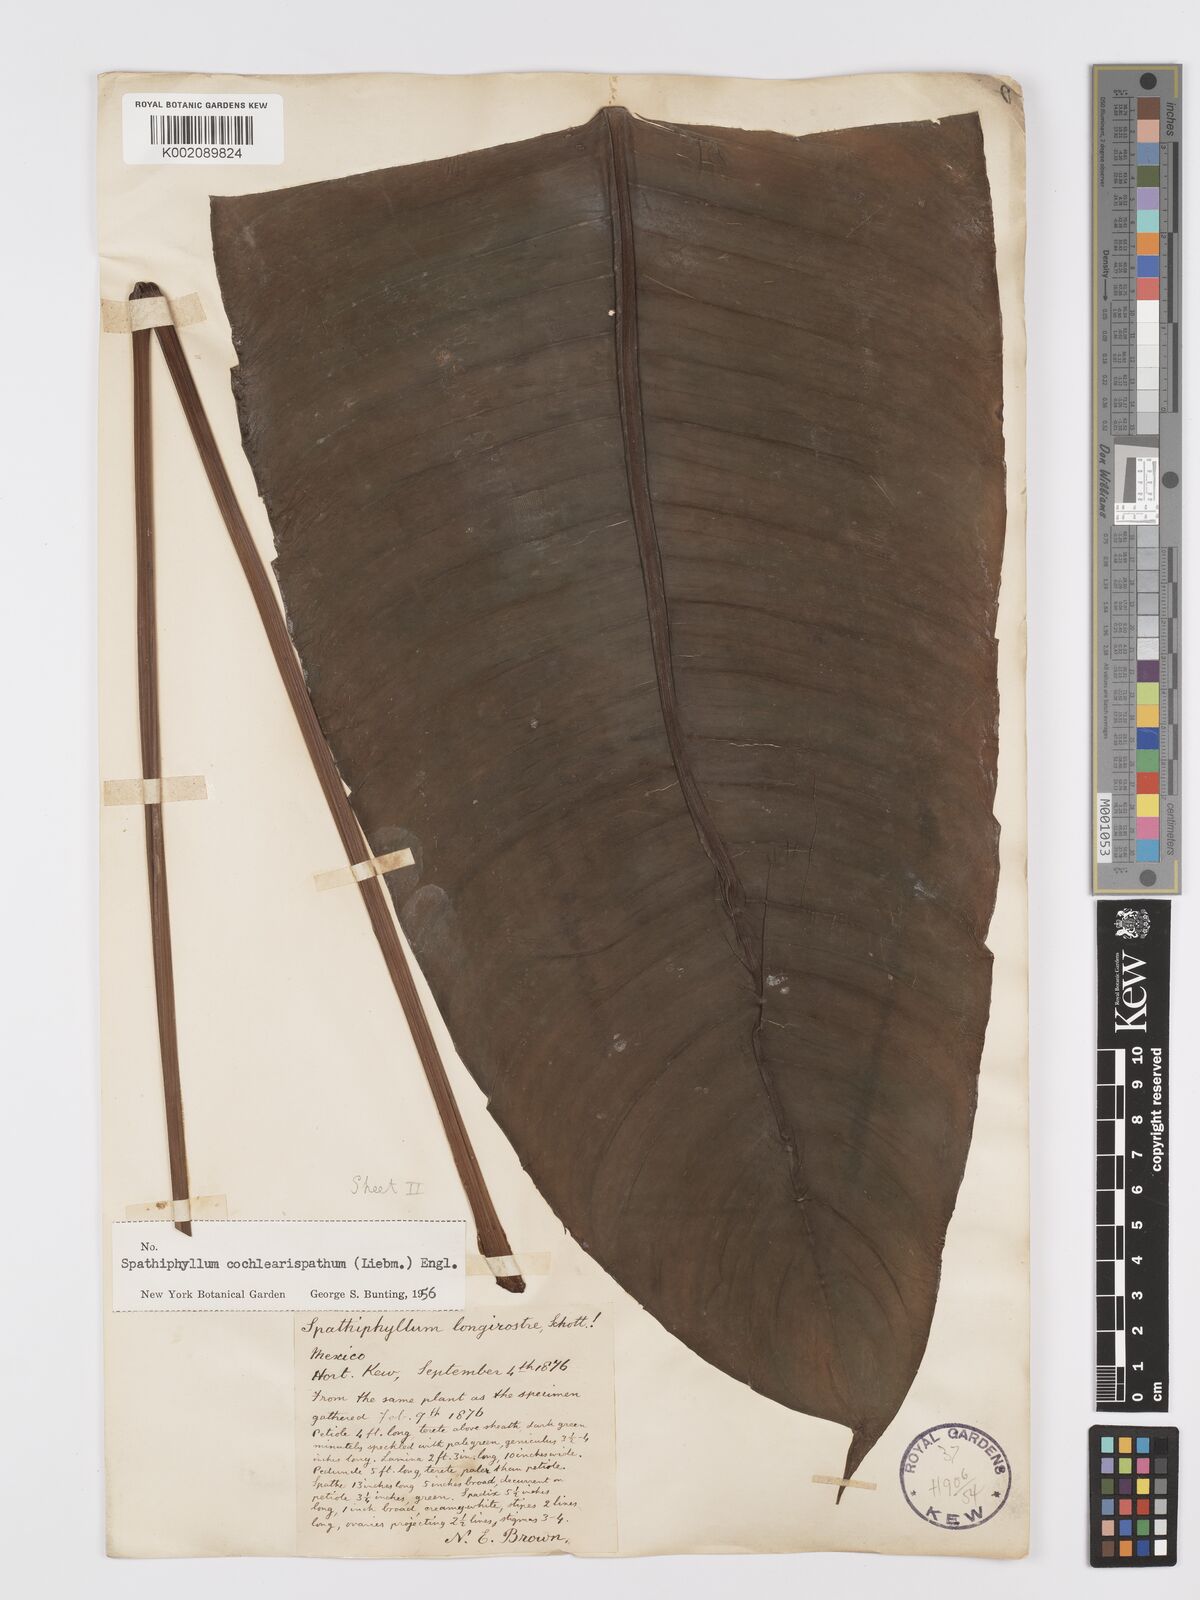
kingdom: Plantae
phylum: Tracheophyta
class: Liliopsida
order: Alismatales
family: Araceae
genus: Spathiphyllum
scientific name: Spathiphyllum cochlearispathum
